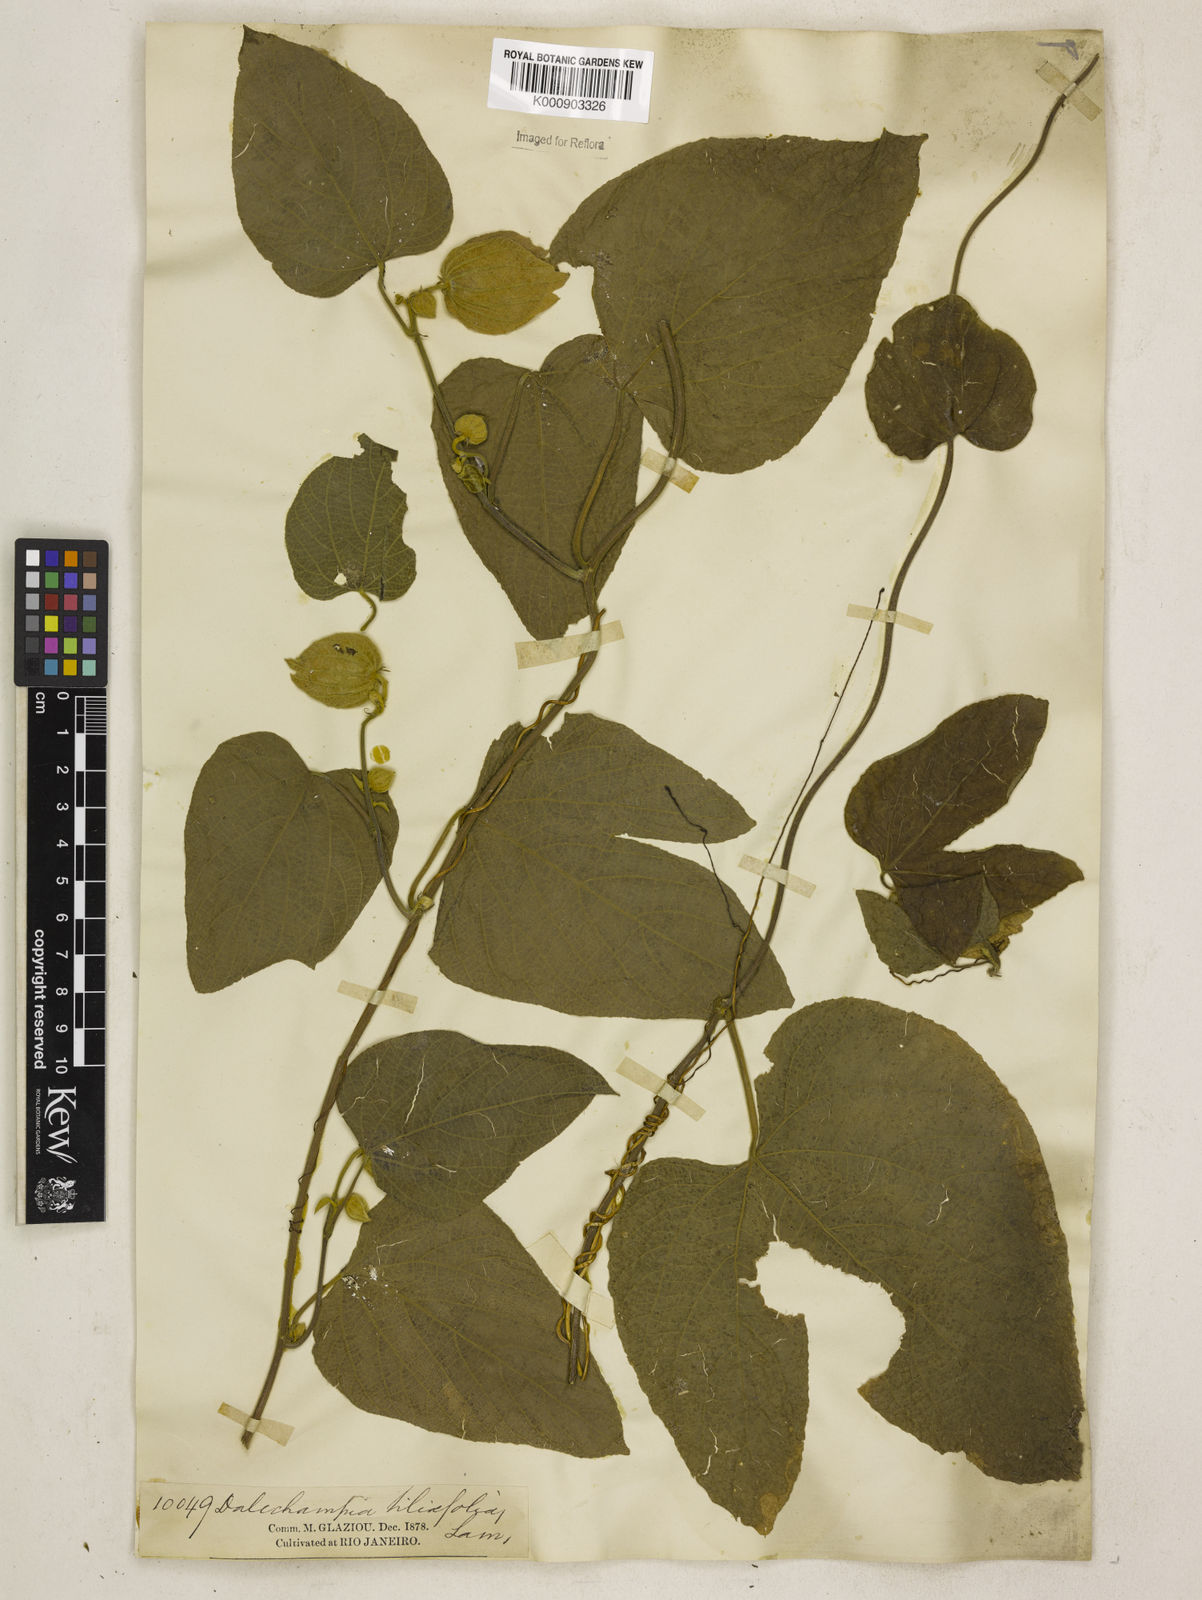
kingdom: Plantae
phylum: Tracheophyta
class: Magnoliopsida
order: Malpighiales
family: Euphorbiaceae
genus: Dalechampia
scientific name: Dalechampia tiliifolia
